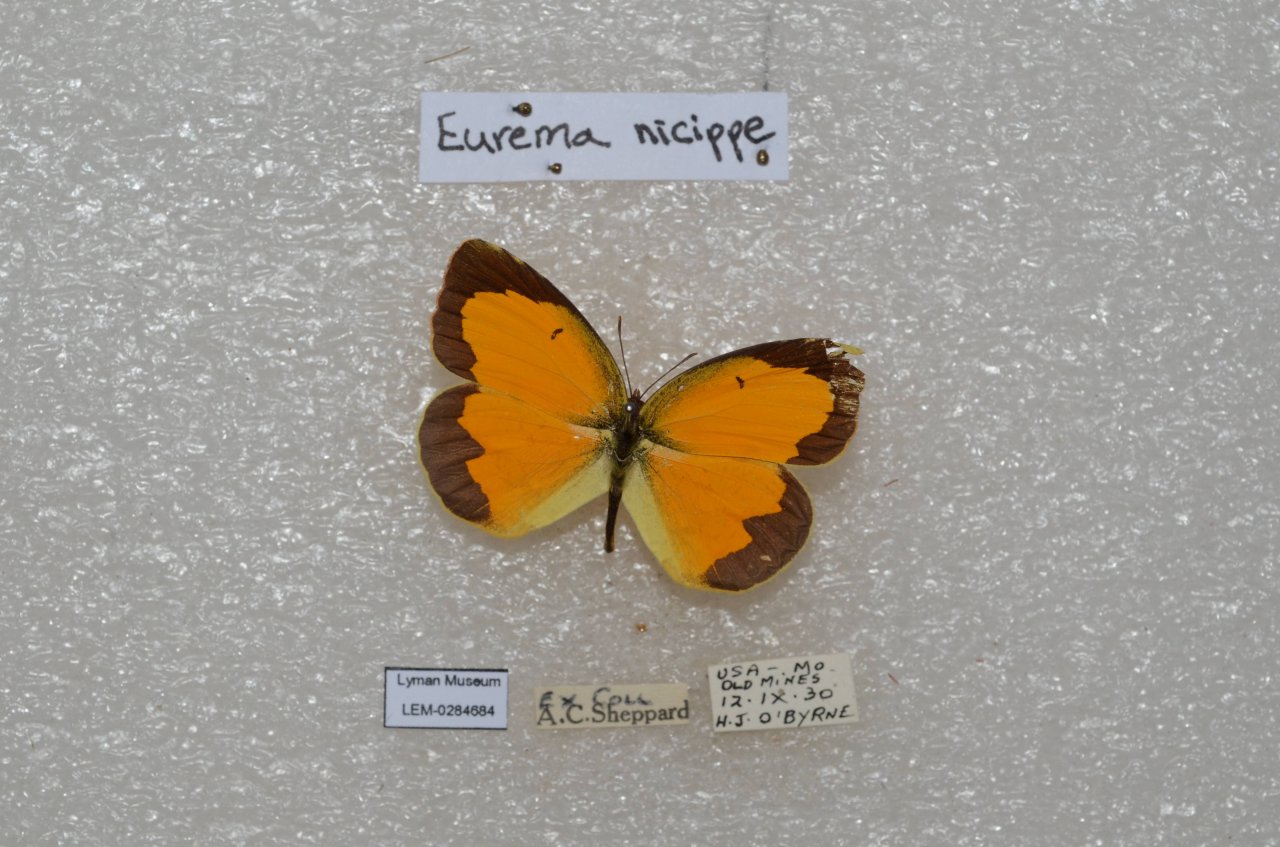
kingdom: Animalia
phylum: Arthropoda
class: Insecta
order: Lepidoptera
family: Pieridae
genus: Abaeis
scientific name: Abaeis nicippe
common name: Sleepy Orange
